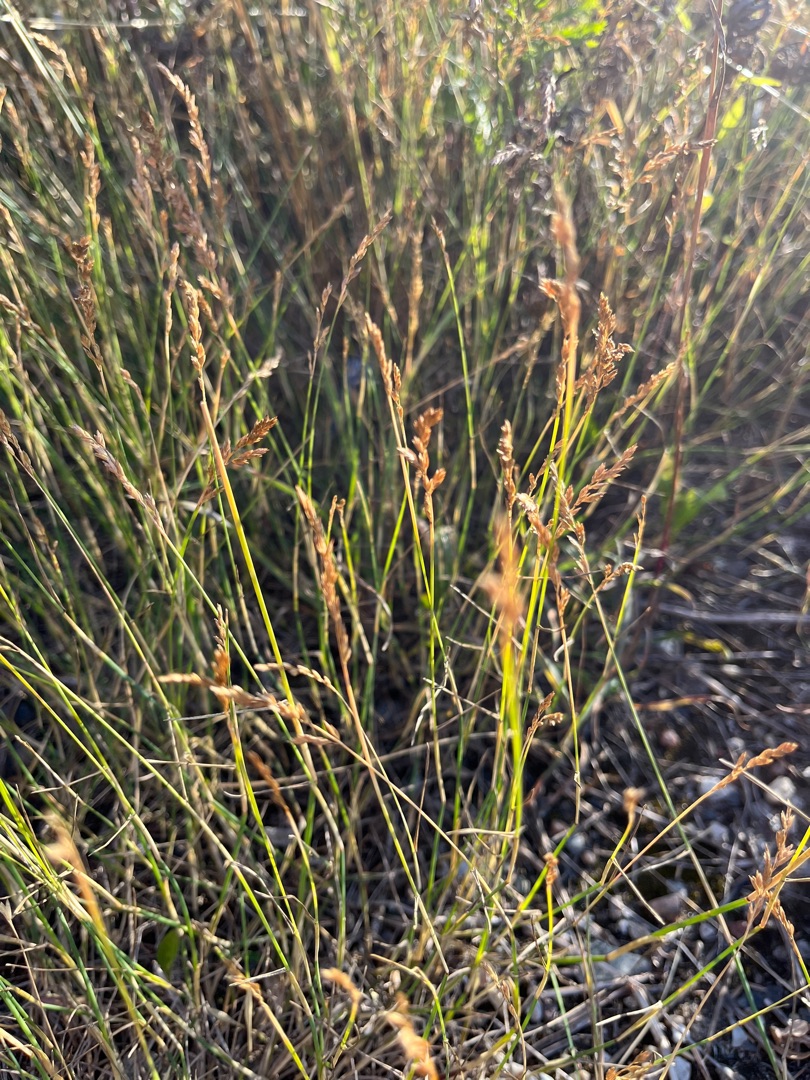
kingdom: Plantae
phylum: Tracheophyta
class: Liliopsida
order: Poales
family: Poaceae
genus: Poa
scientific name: Poa compressa
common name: Fladstrået rapgræs
